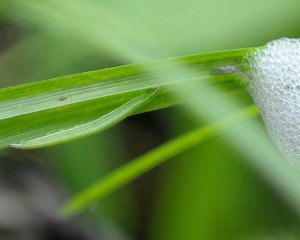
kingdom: Animalia
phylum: Arthropoda
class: Insecta
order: Lepidoptera
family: Nymphalidae
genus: Lethe
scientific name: Lethe eurydice
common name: Appalachian Eyed Brown
